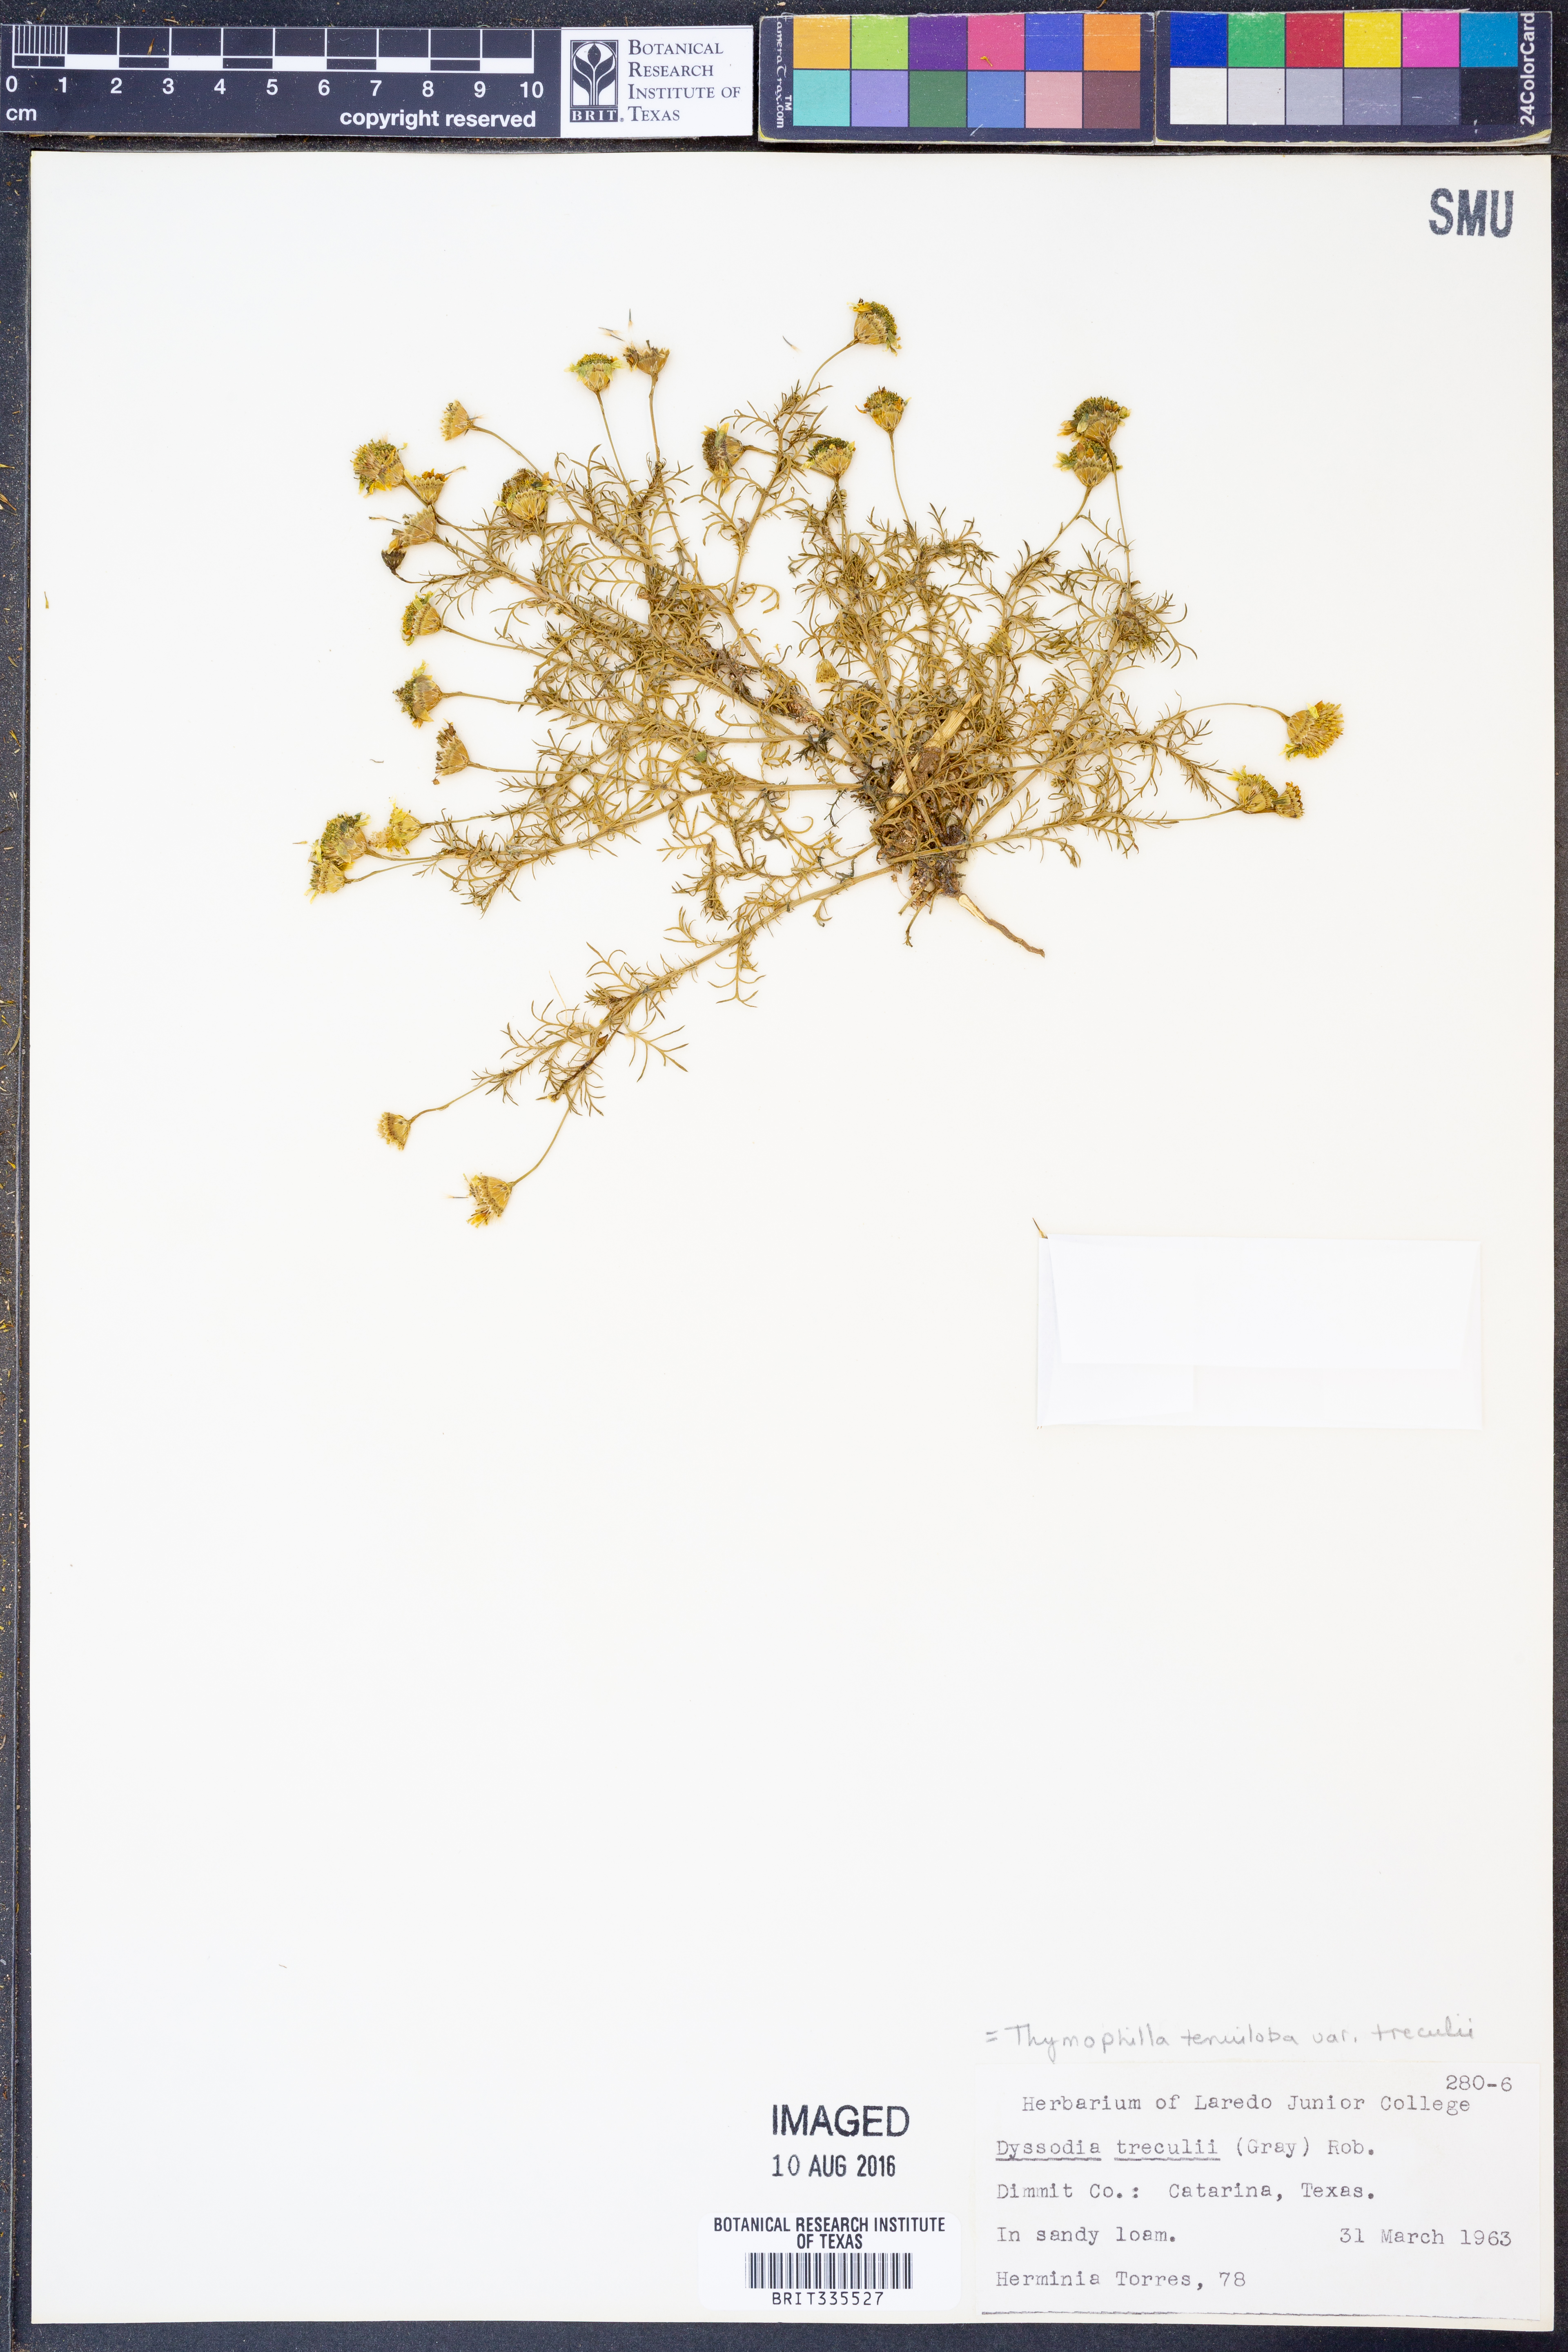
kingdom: Plantae
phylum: Tracheophyta
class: Magnoliopsida
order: Asterales
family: Asteraceae
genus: Thymophylla
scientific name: Thymophylla tenuiloba
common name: Dahlberg's daisy
